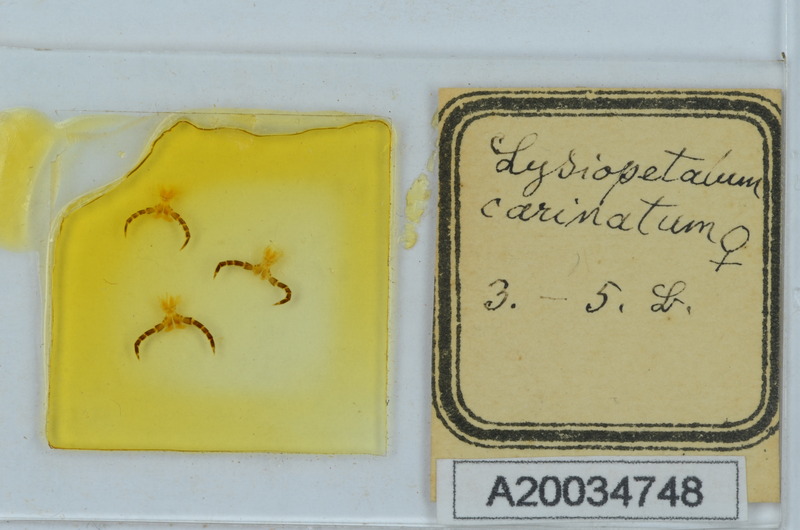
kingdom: Animalia
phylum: Arthropoda
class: Diplopoda
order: Callipodida
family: Schizopetalidae
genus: Acanthopetalum
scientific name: Acanthopetalum carinatum
